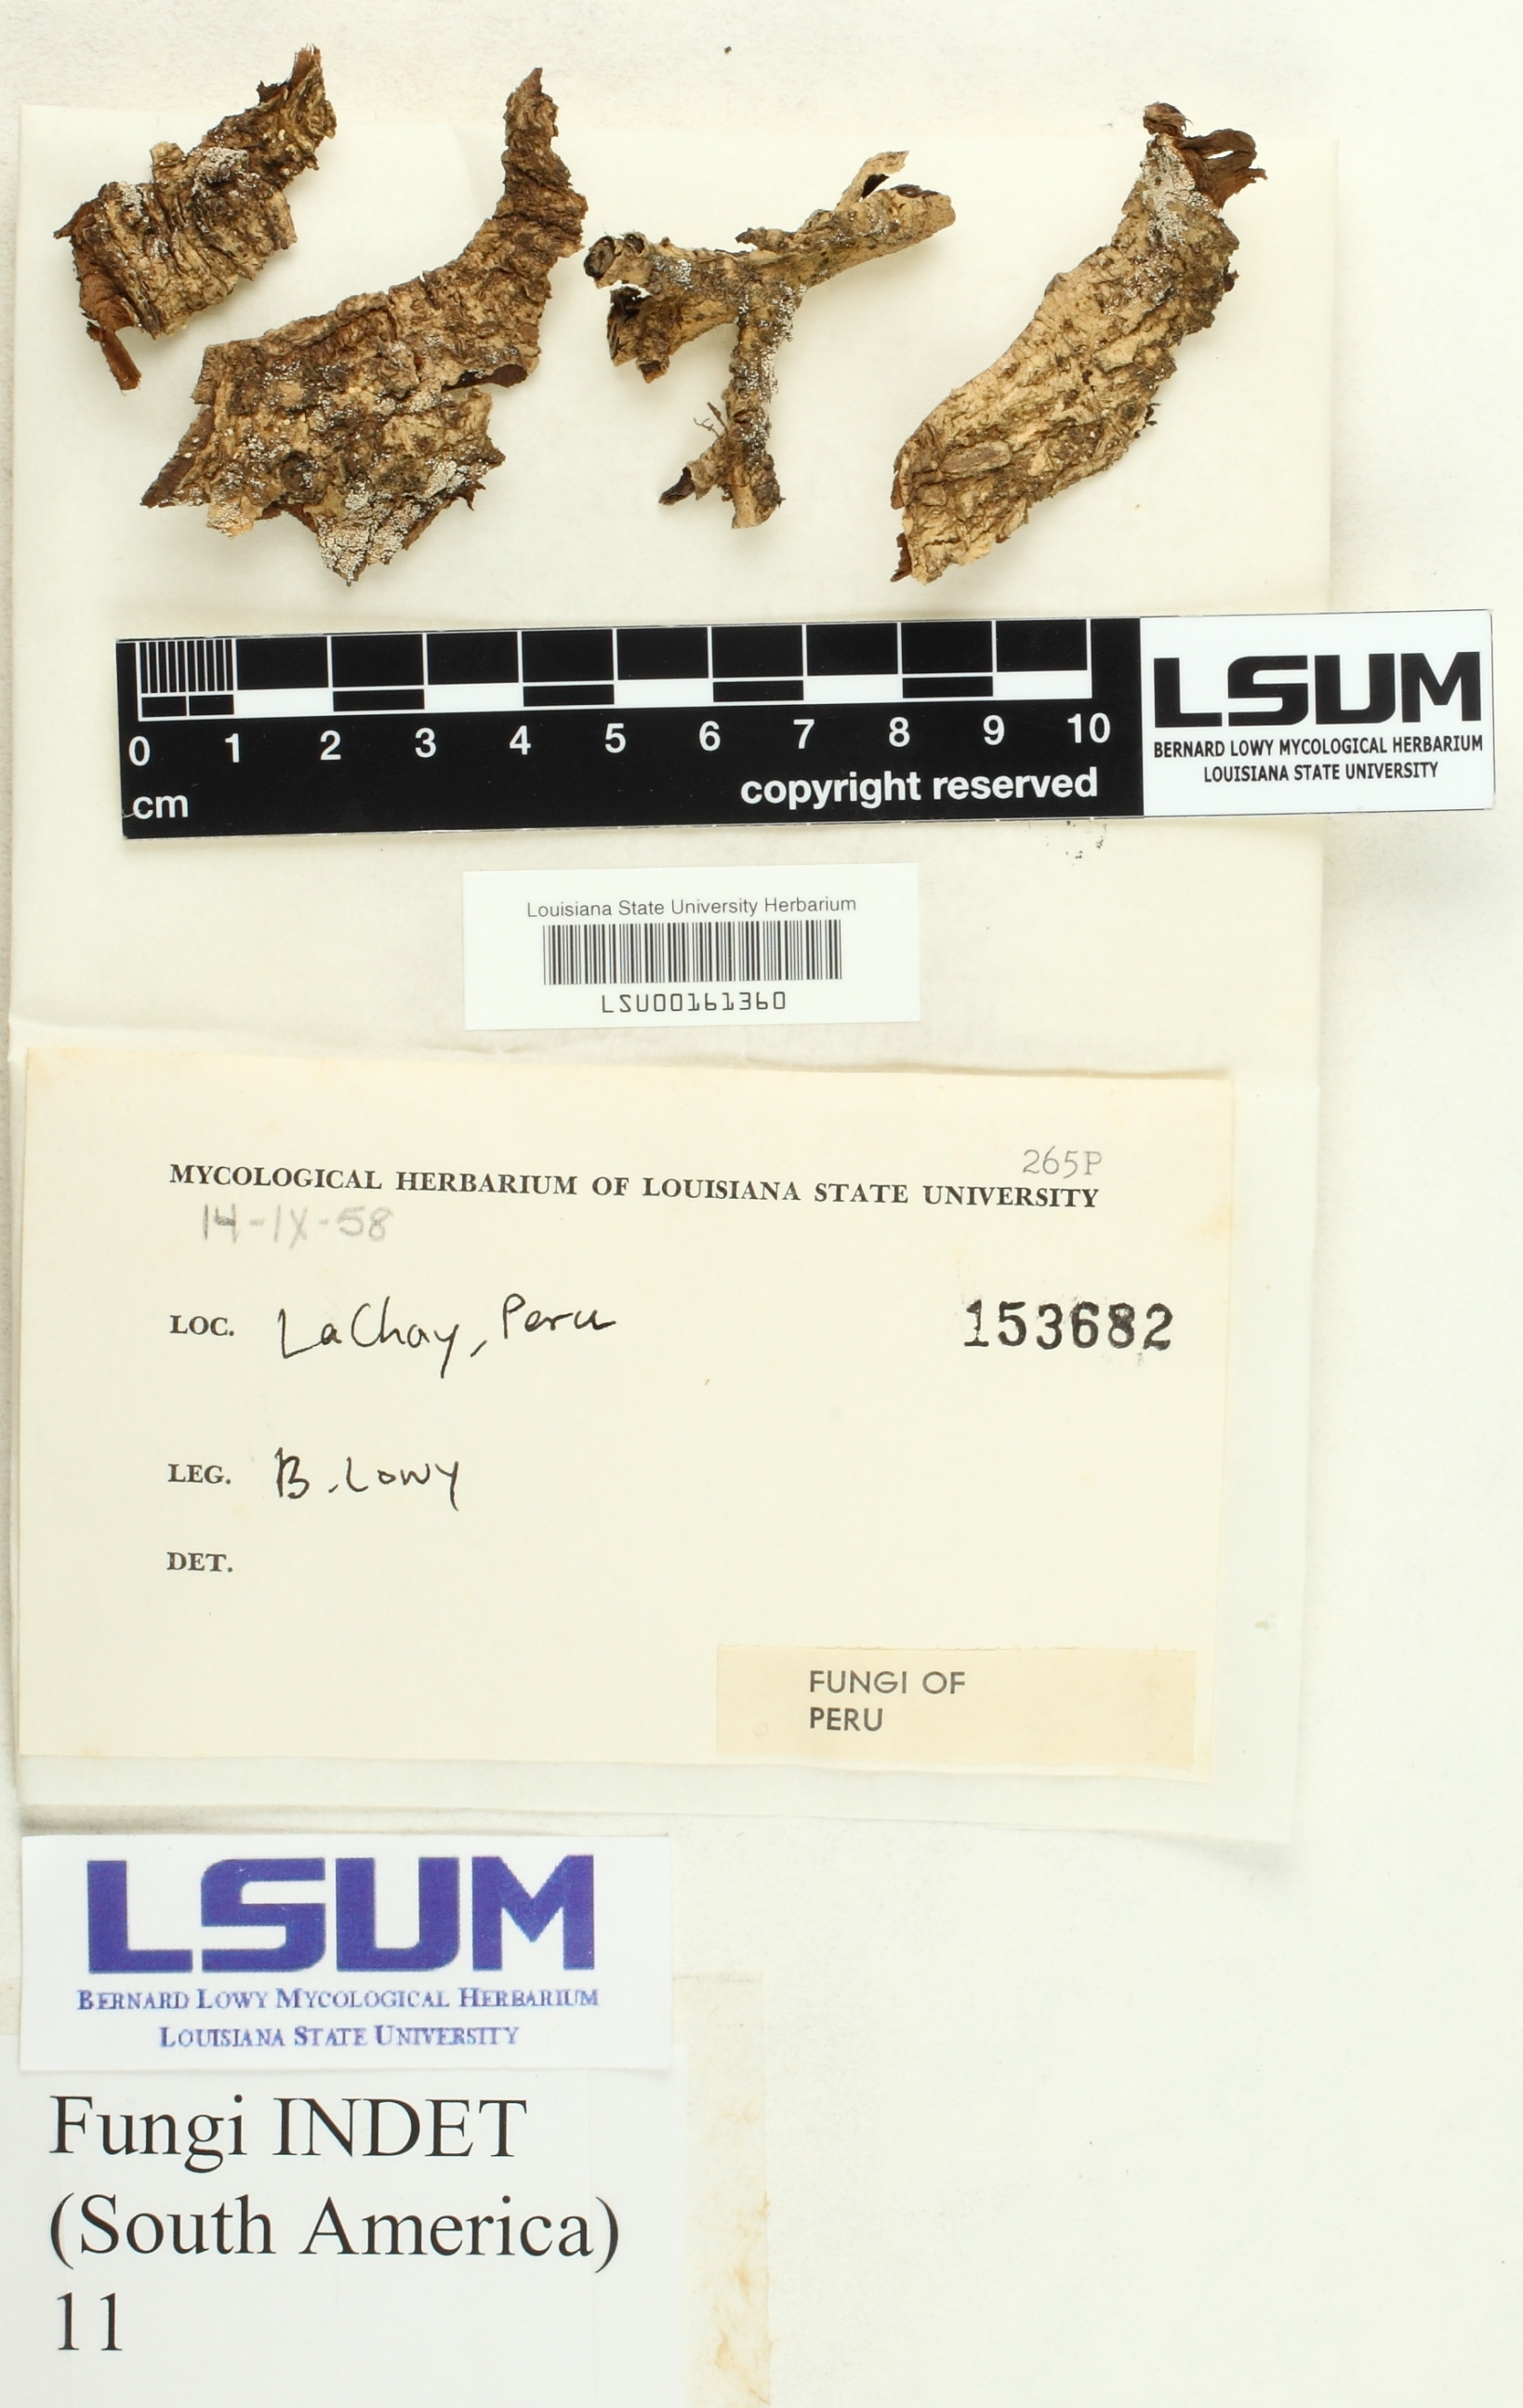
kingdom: Fungi
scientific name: Fungi
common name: Fungi
